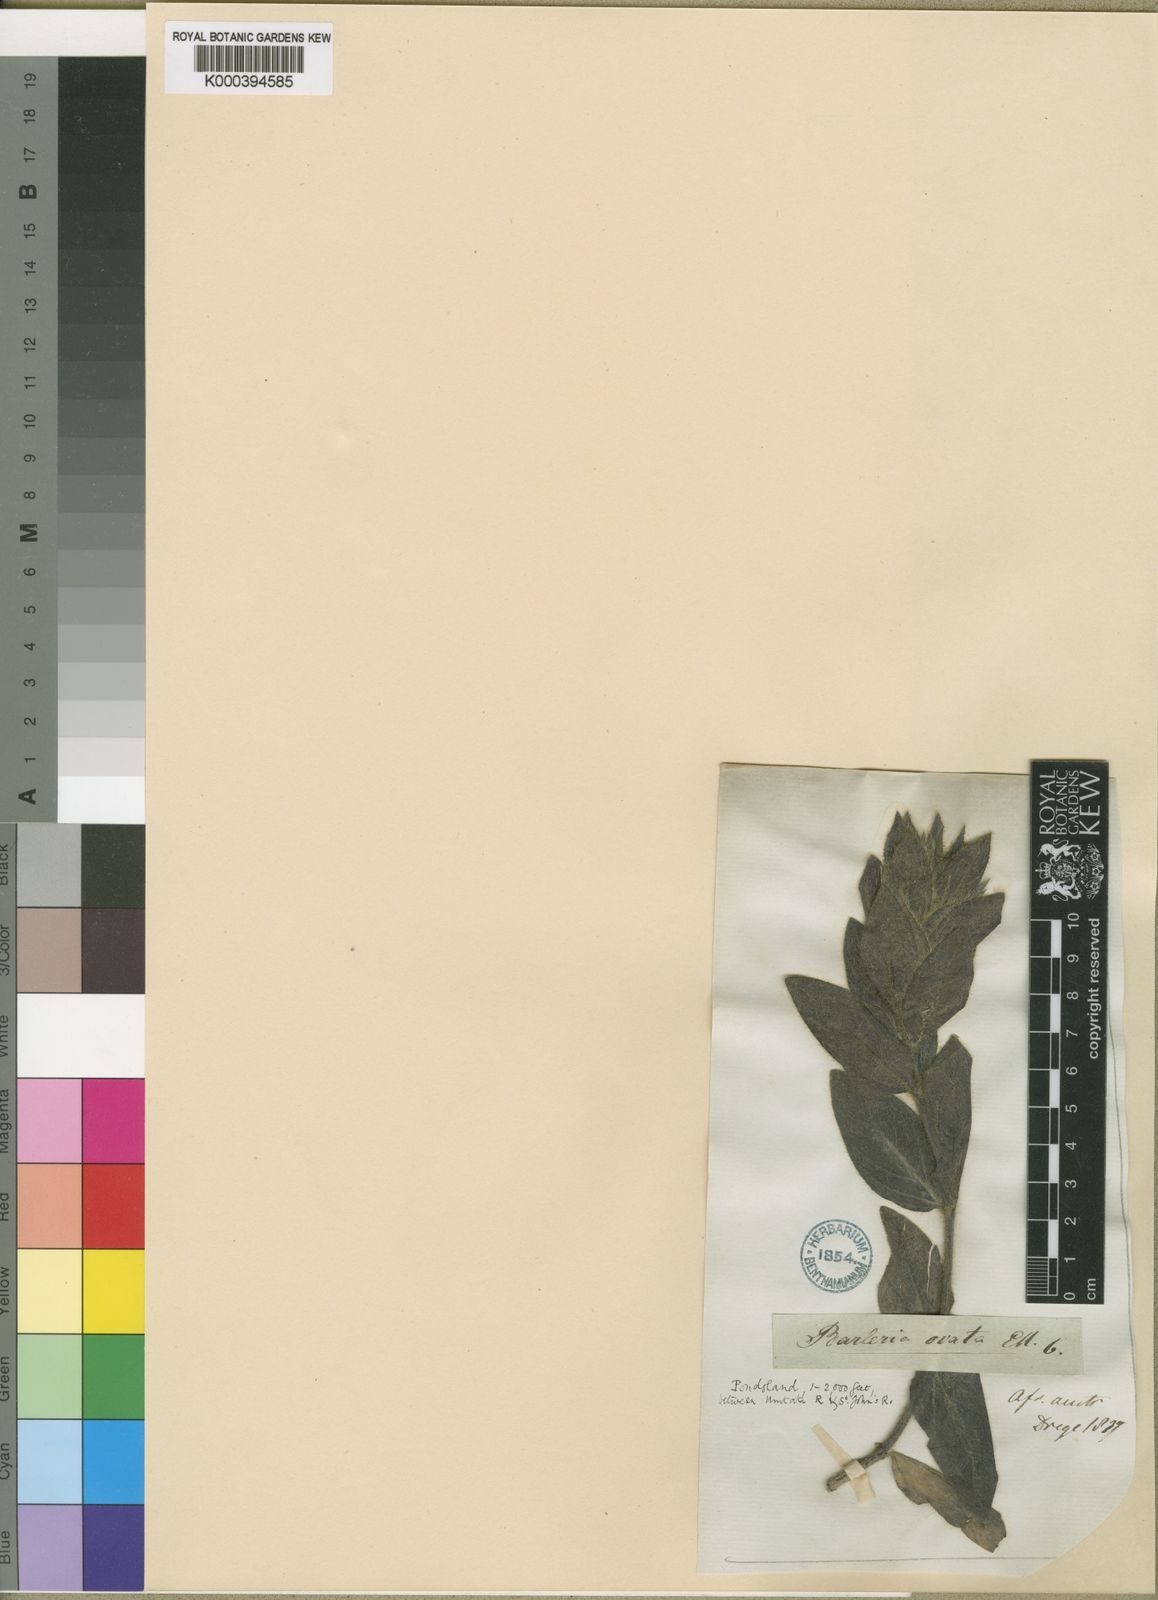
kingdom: Plantae
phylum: Tracheophyta
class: Magnoliopsida
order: Lamiales
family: Acanthaceae
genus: Barleria
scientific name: Barleria ovata
